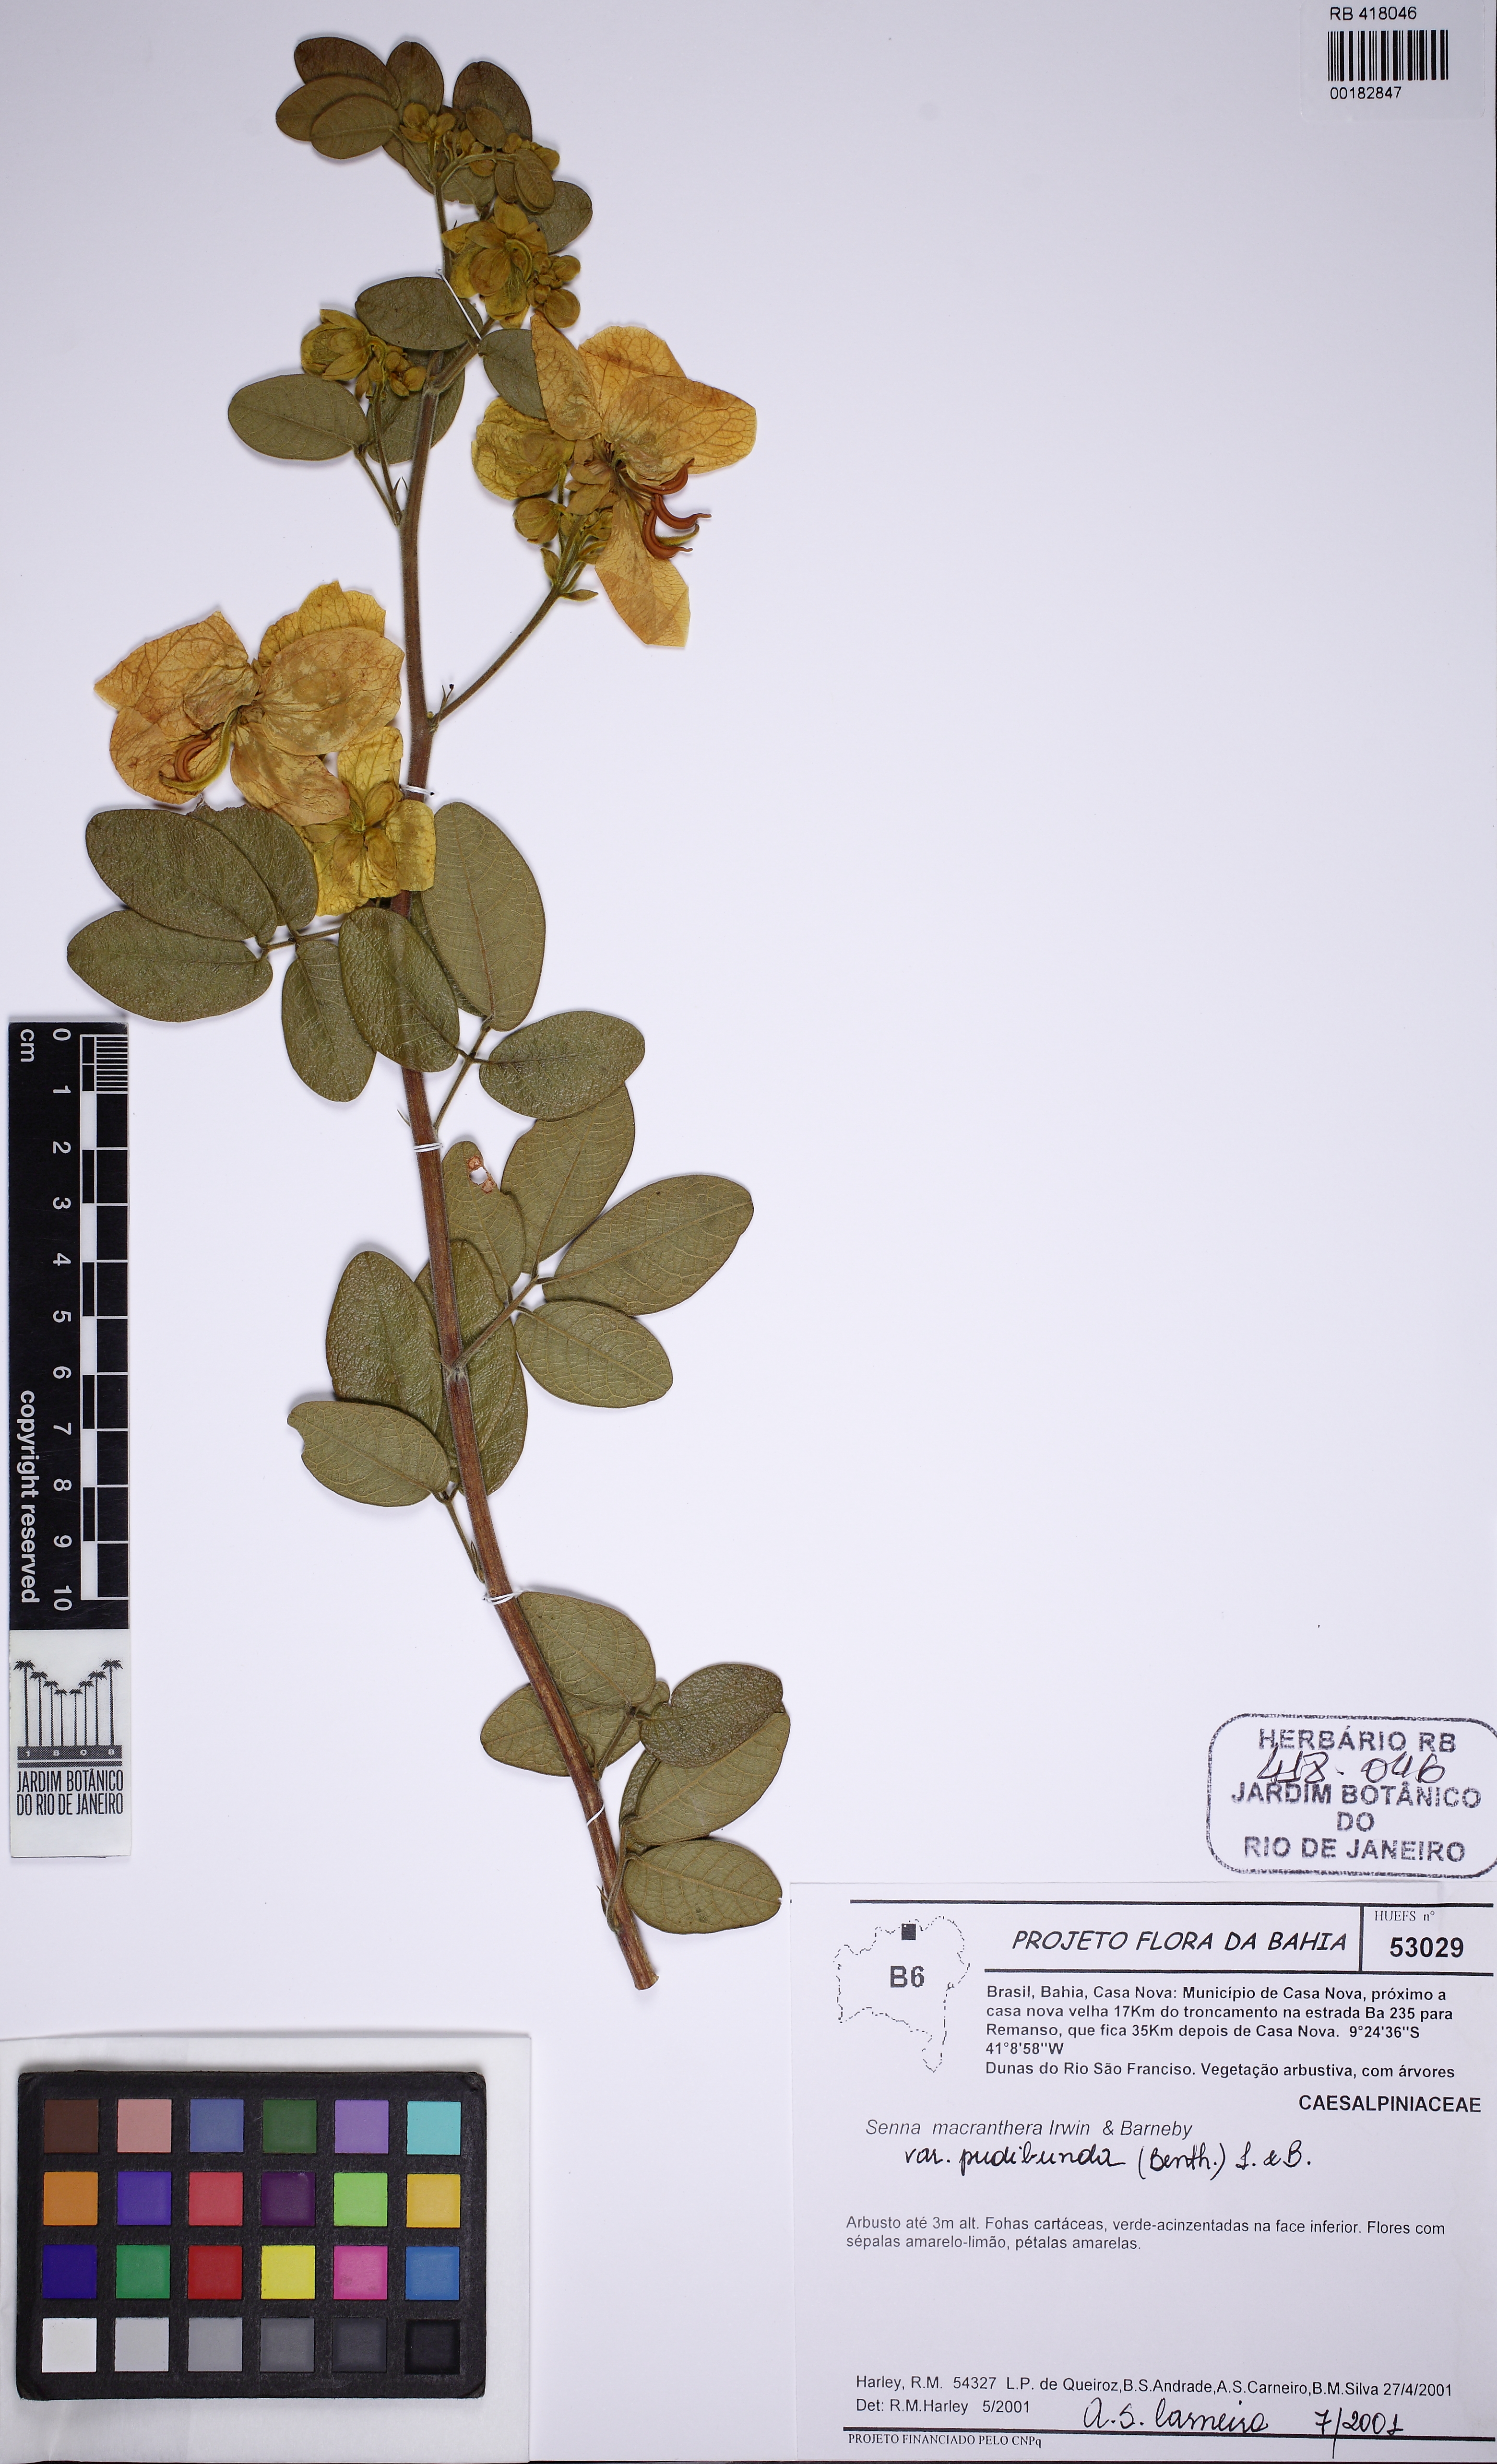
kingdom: Plantae
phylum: Tracheophyta
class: Magnoliopsida
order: Fabales
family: Fabaceae
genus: Senna
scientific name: Senna macranthera
